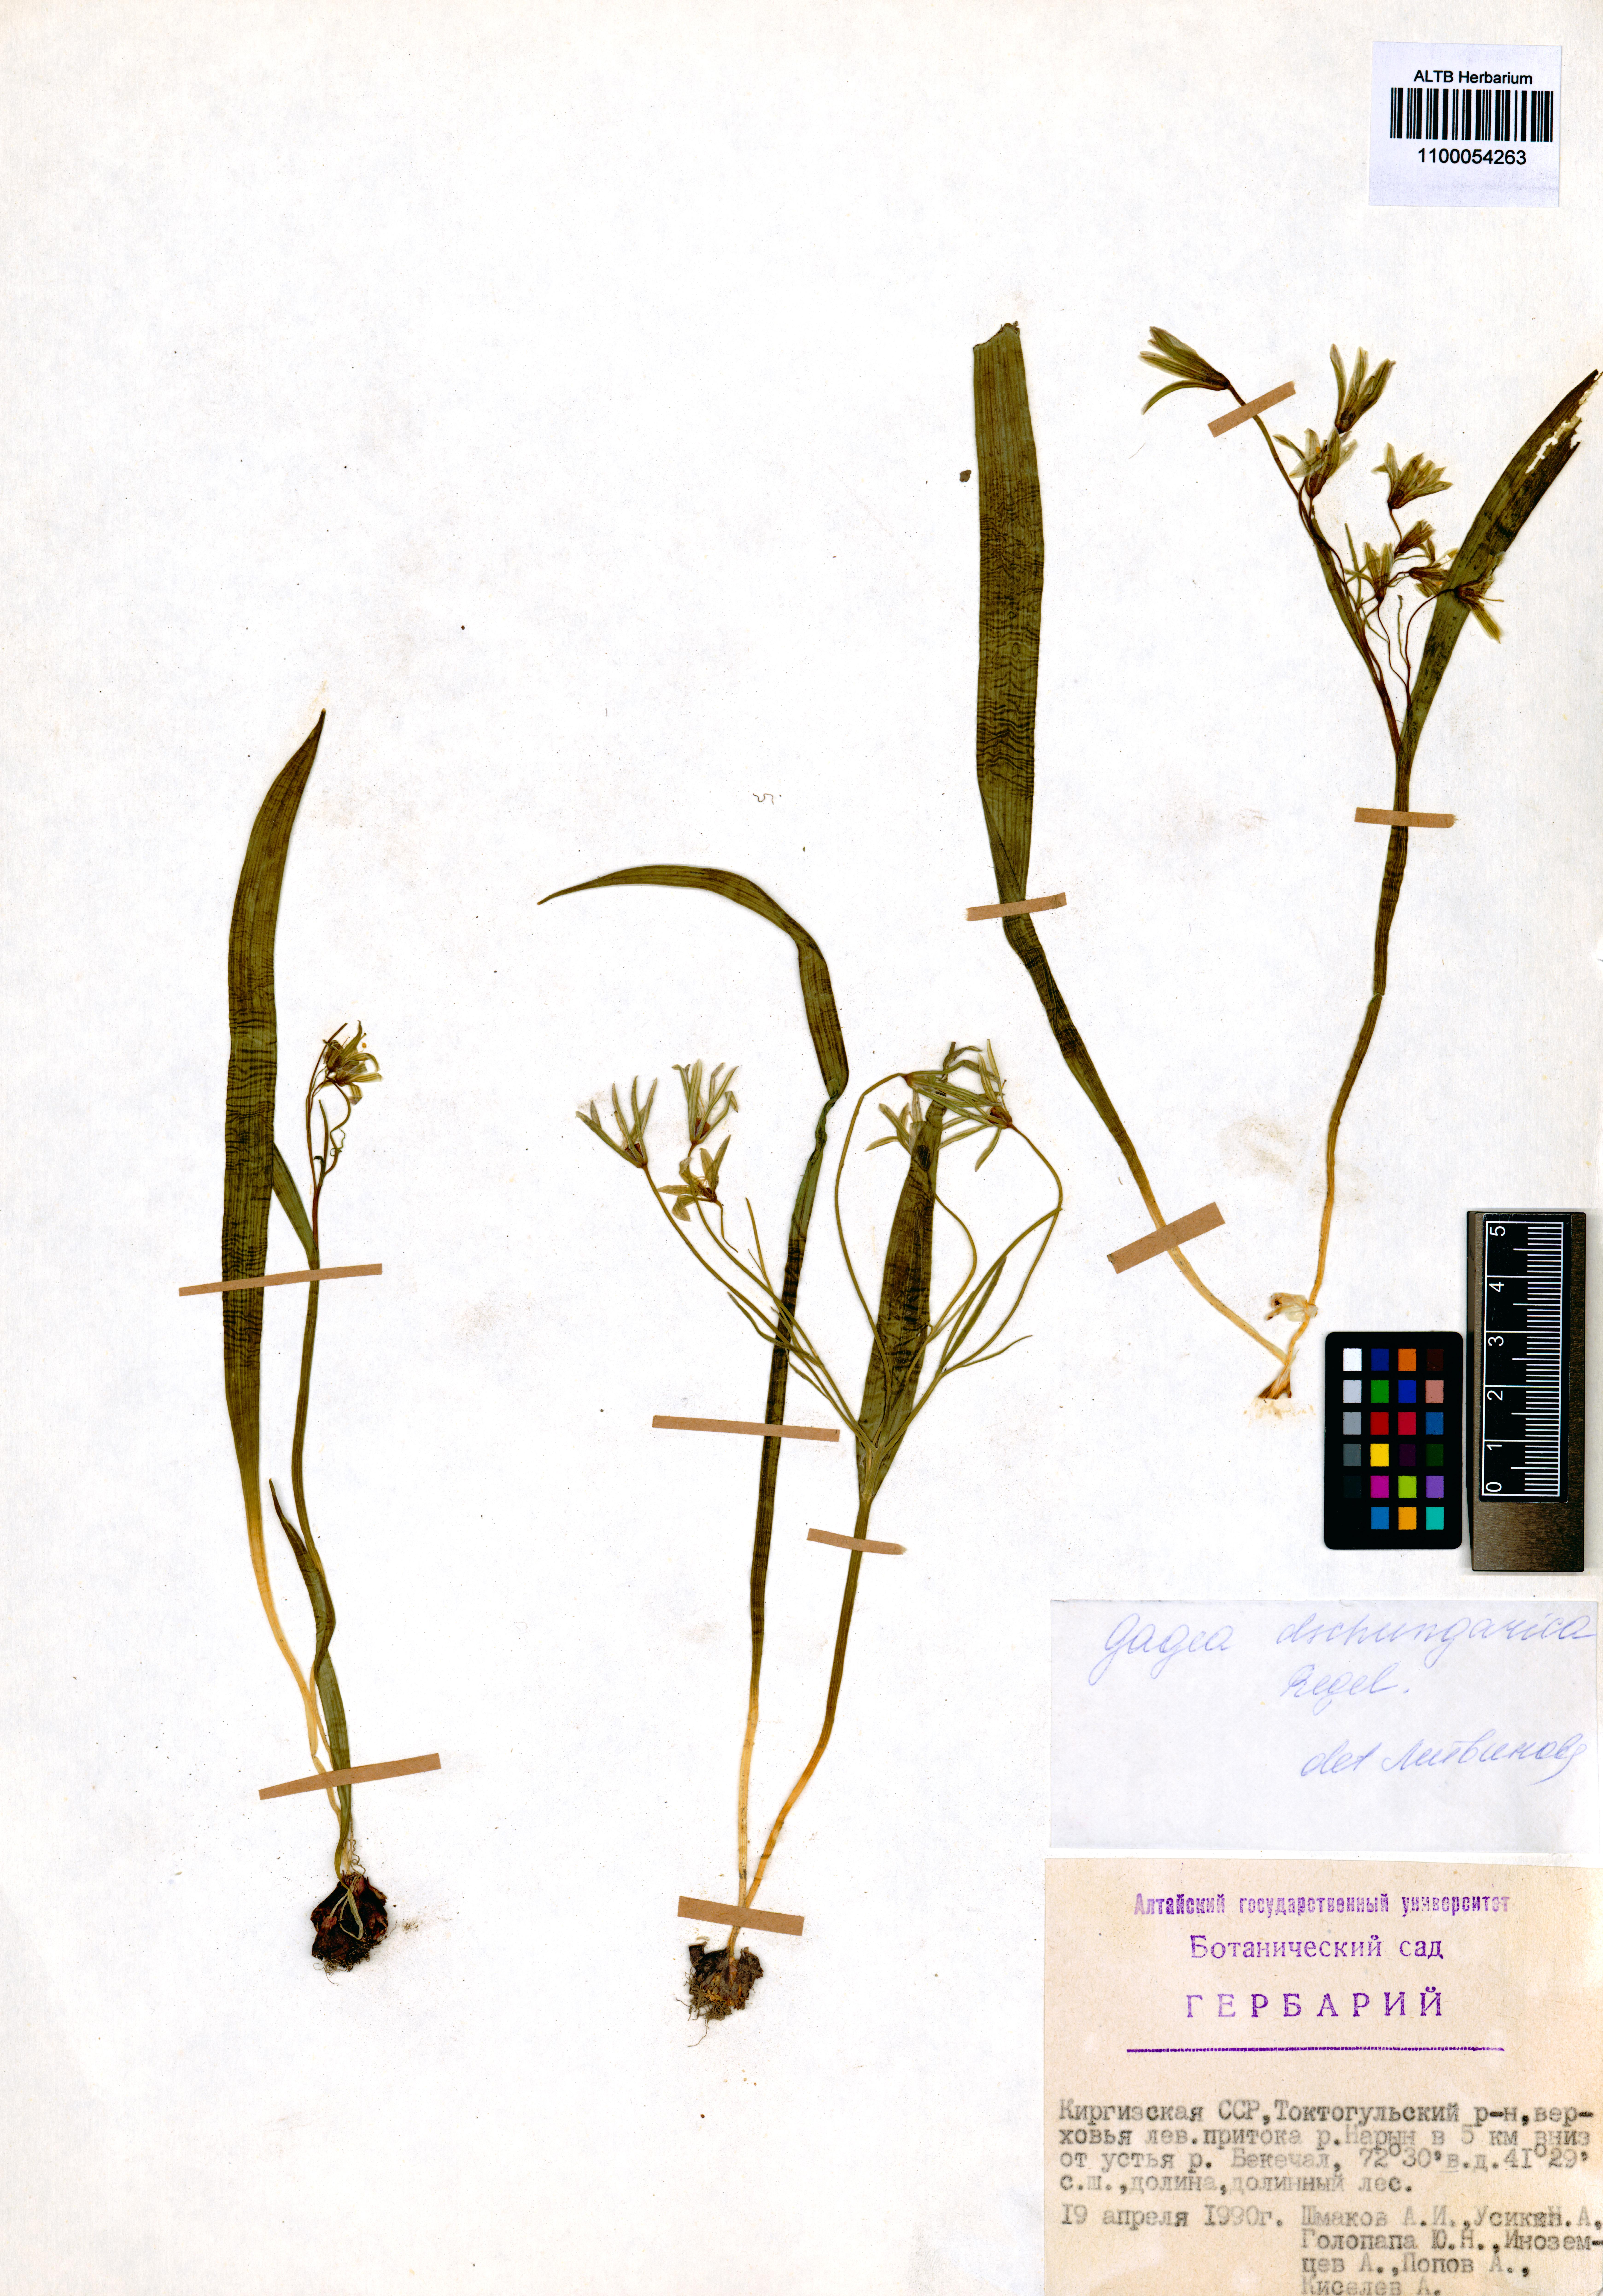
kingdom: Plantae
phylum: Tracheophyta
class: Liliopsida
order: Liliales
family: Liliaceae
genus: Gagea
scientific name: Gagea dschungarica
